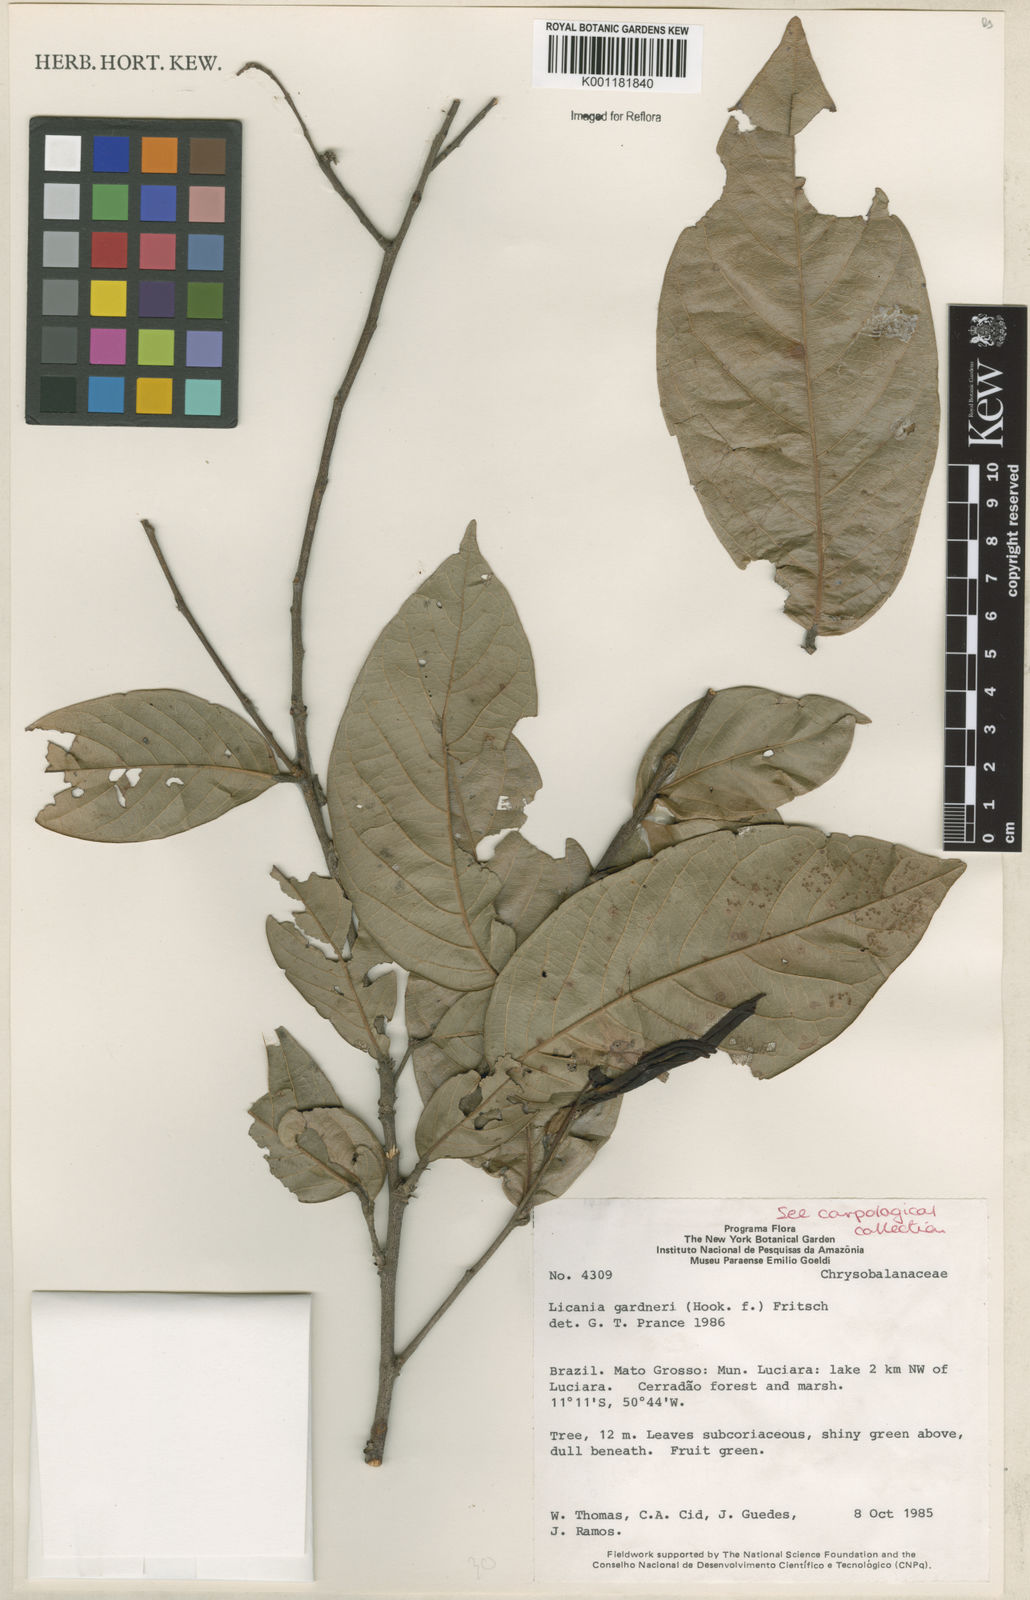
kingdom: Plantae
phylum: Tracheophyta
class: Magnoliopsida
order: Malpighiales
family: Chrysobalanaceae
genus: Leptobalanus
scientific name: Leptobalanus gardneri
